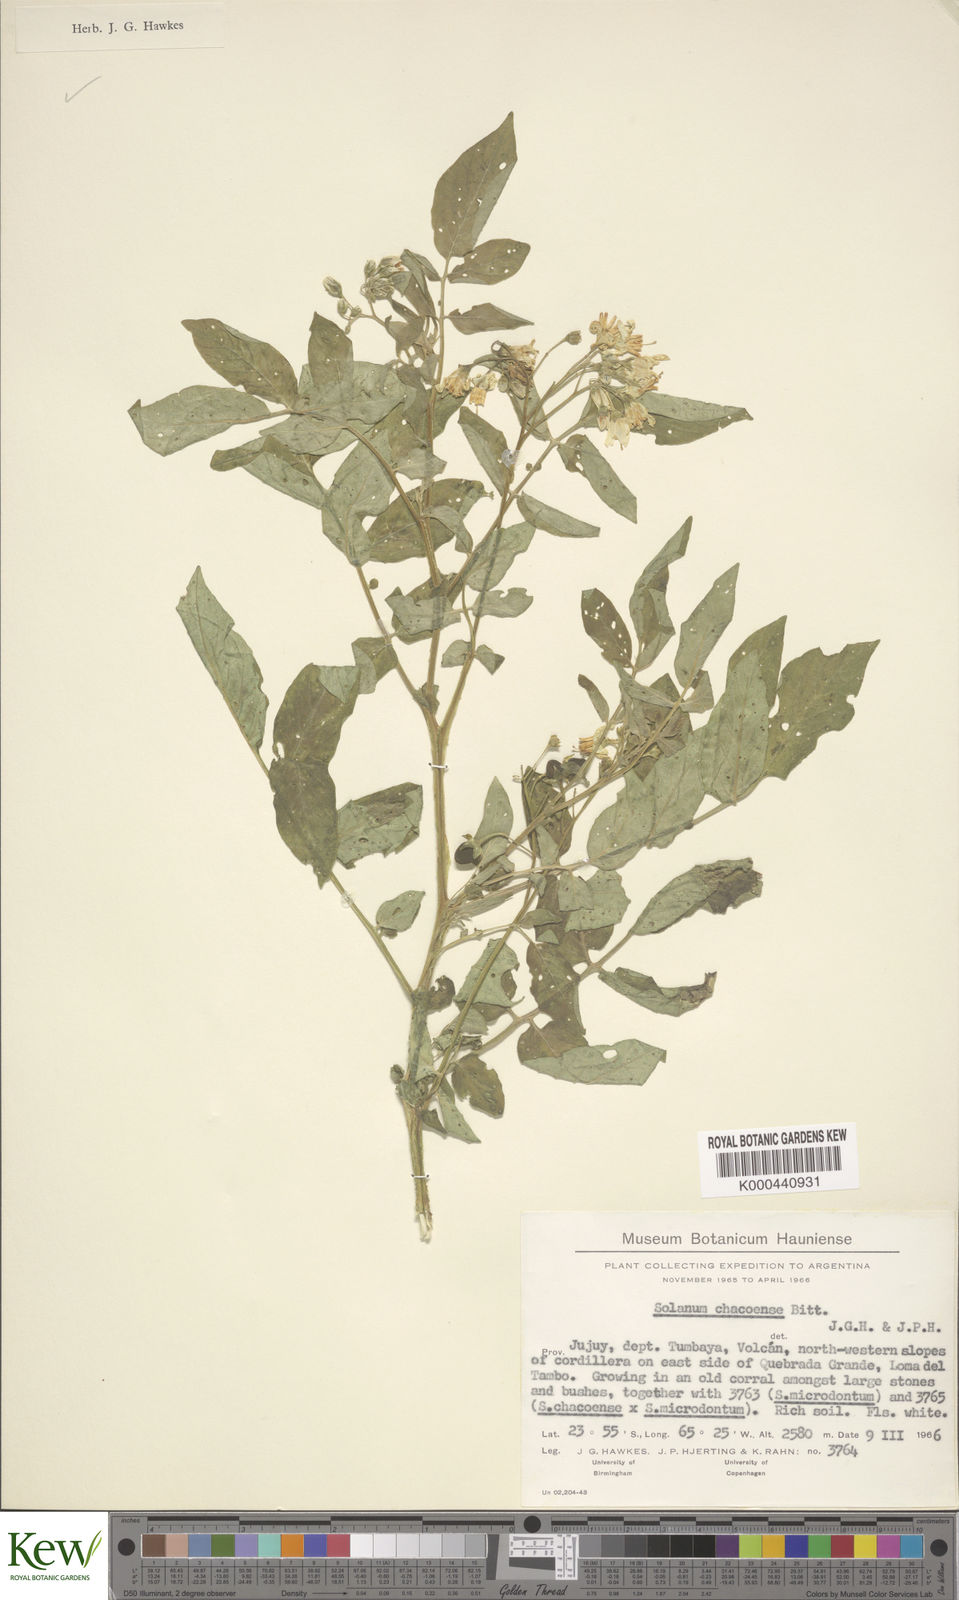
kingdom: Plantae
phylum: Tracheophyta
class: Magnoliopsida
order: Solanales
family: Solanaceae
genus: Solanum
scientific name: Solanum chacoense
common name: Chaco potato
